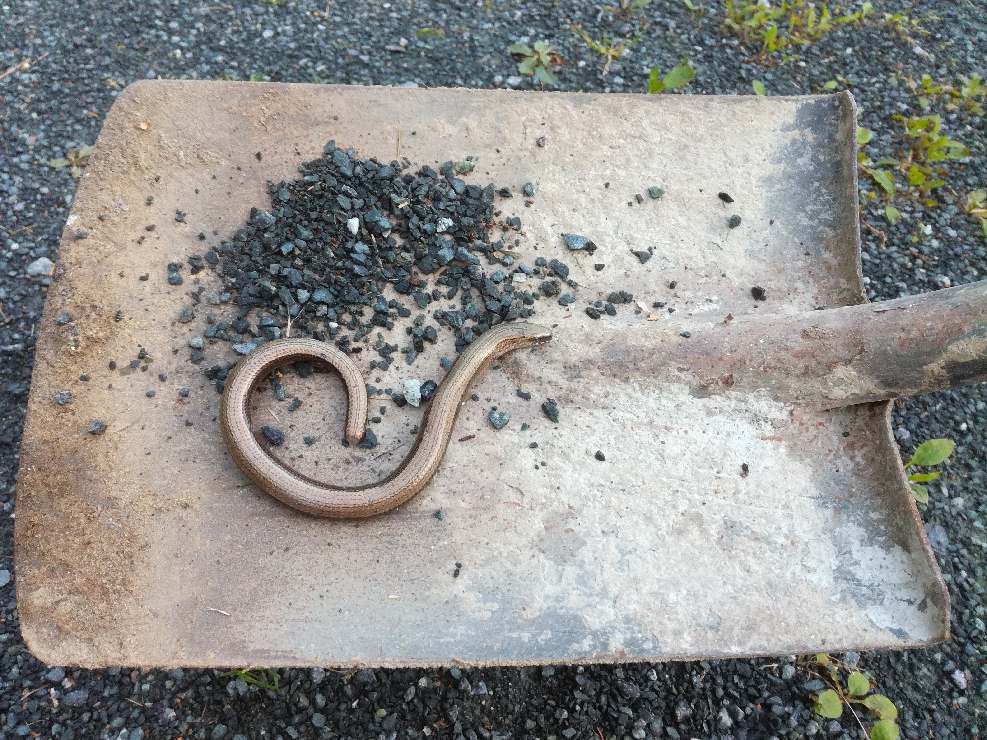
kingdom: Animalia
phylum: Chordata
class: Squamata
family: Anguidae
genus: Anguis
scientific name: Anguis colchica
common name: Slow worm
